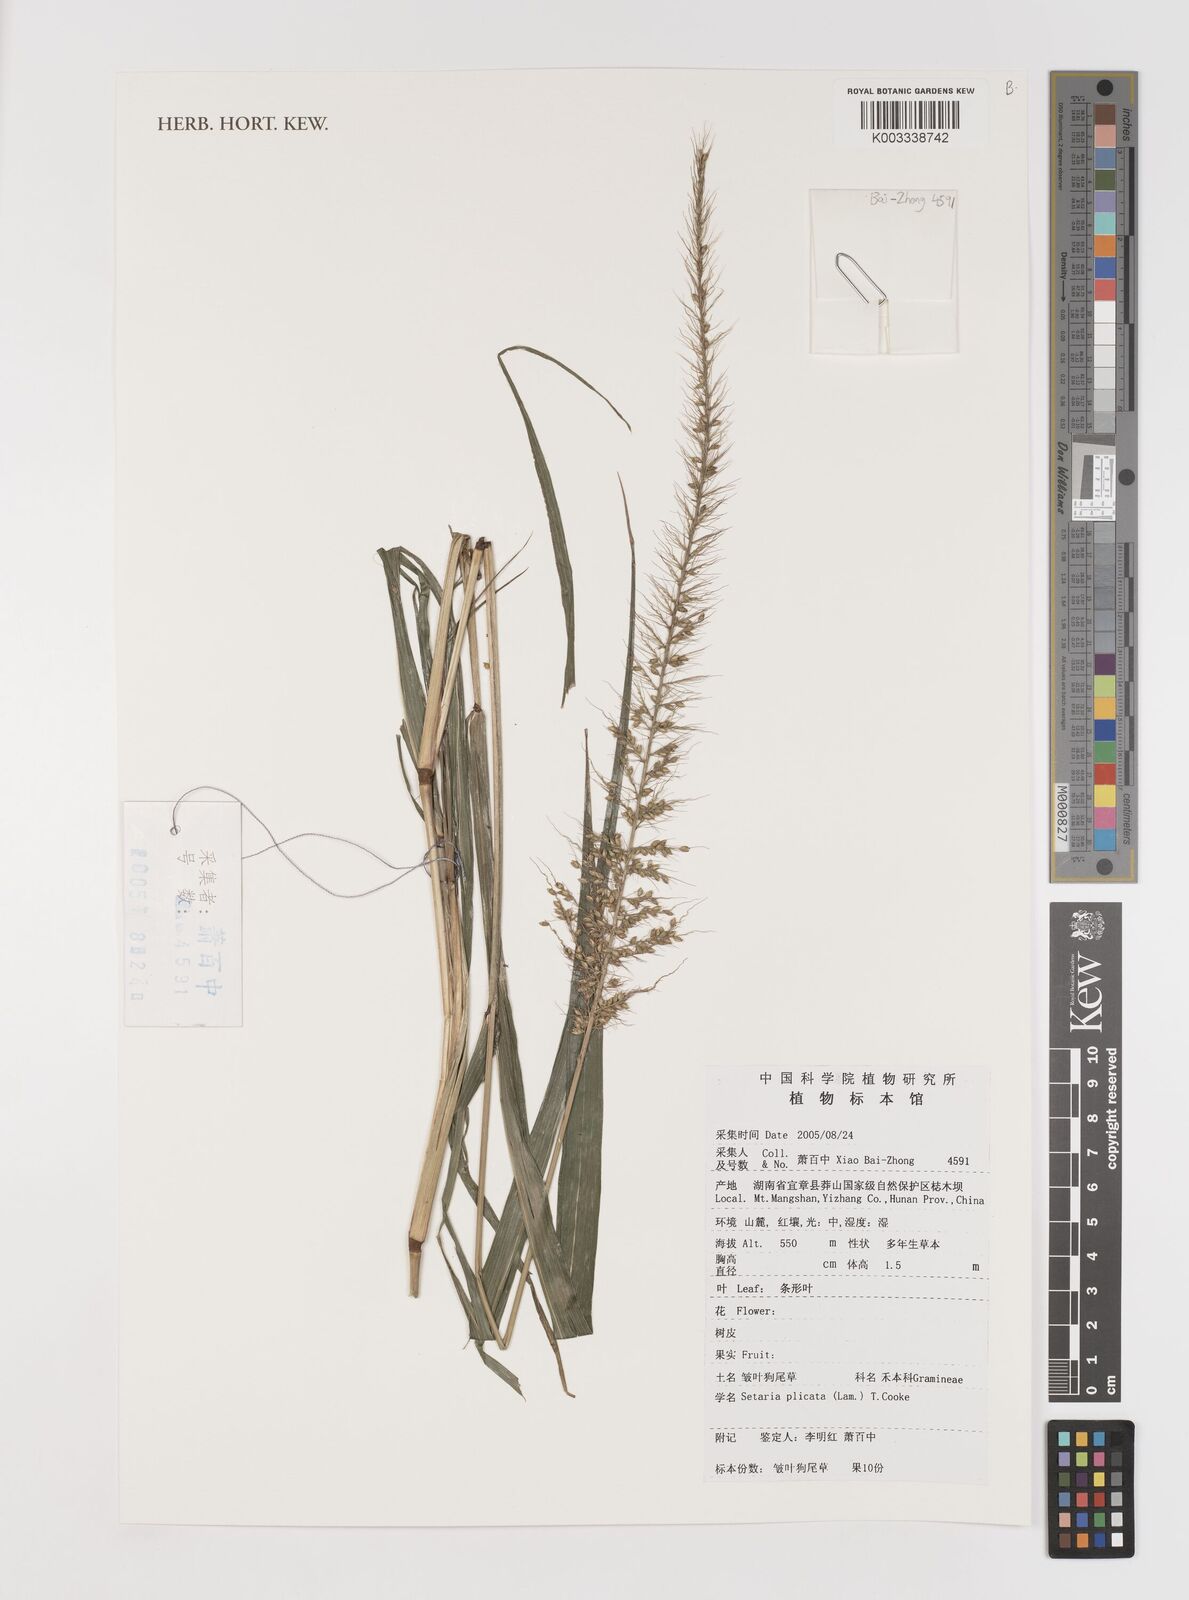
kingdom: Plantae
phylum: Tracheophyta
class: Liliopsida
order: Poales
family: Poaceae
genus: Setaria
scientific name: Setaria plicata
